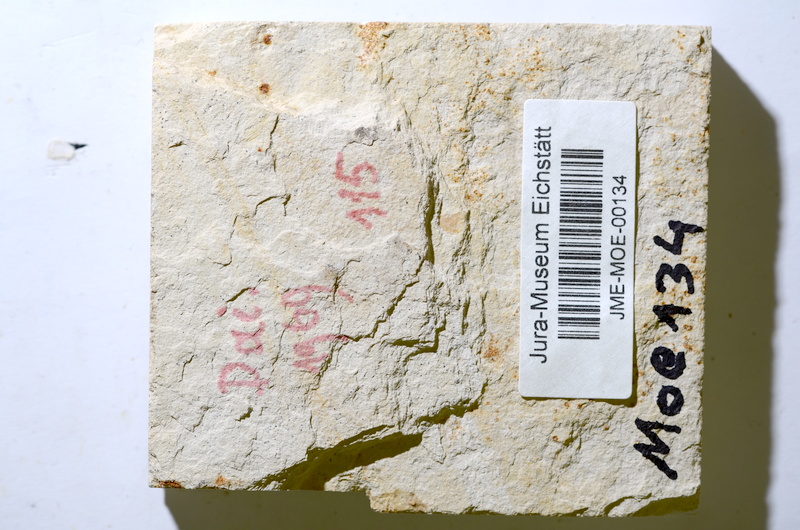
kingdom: Animalia
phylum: Chordata
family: Ascalaboidae
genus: Tharsis
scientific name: Tharsis
